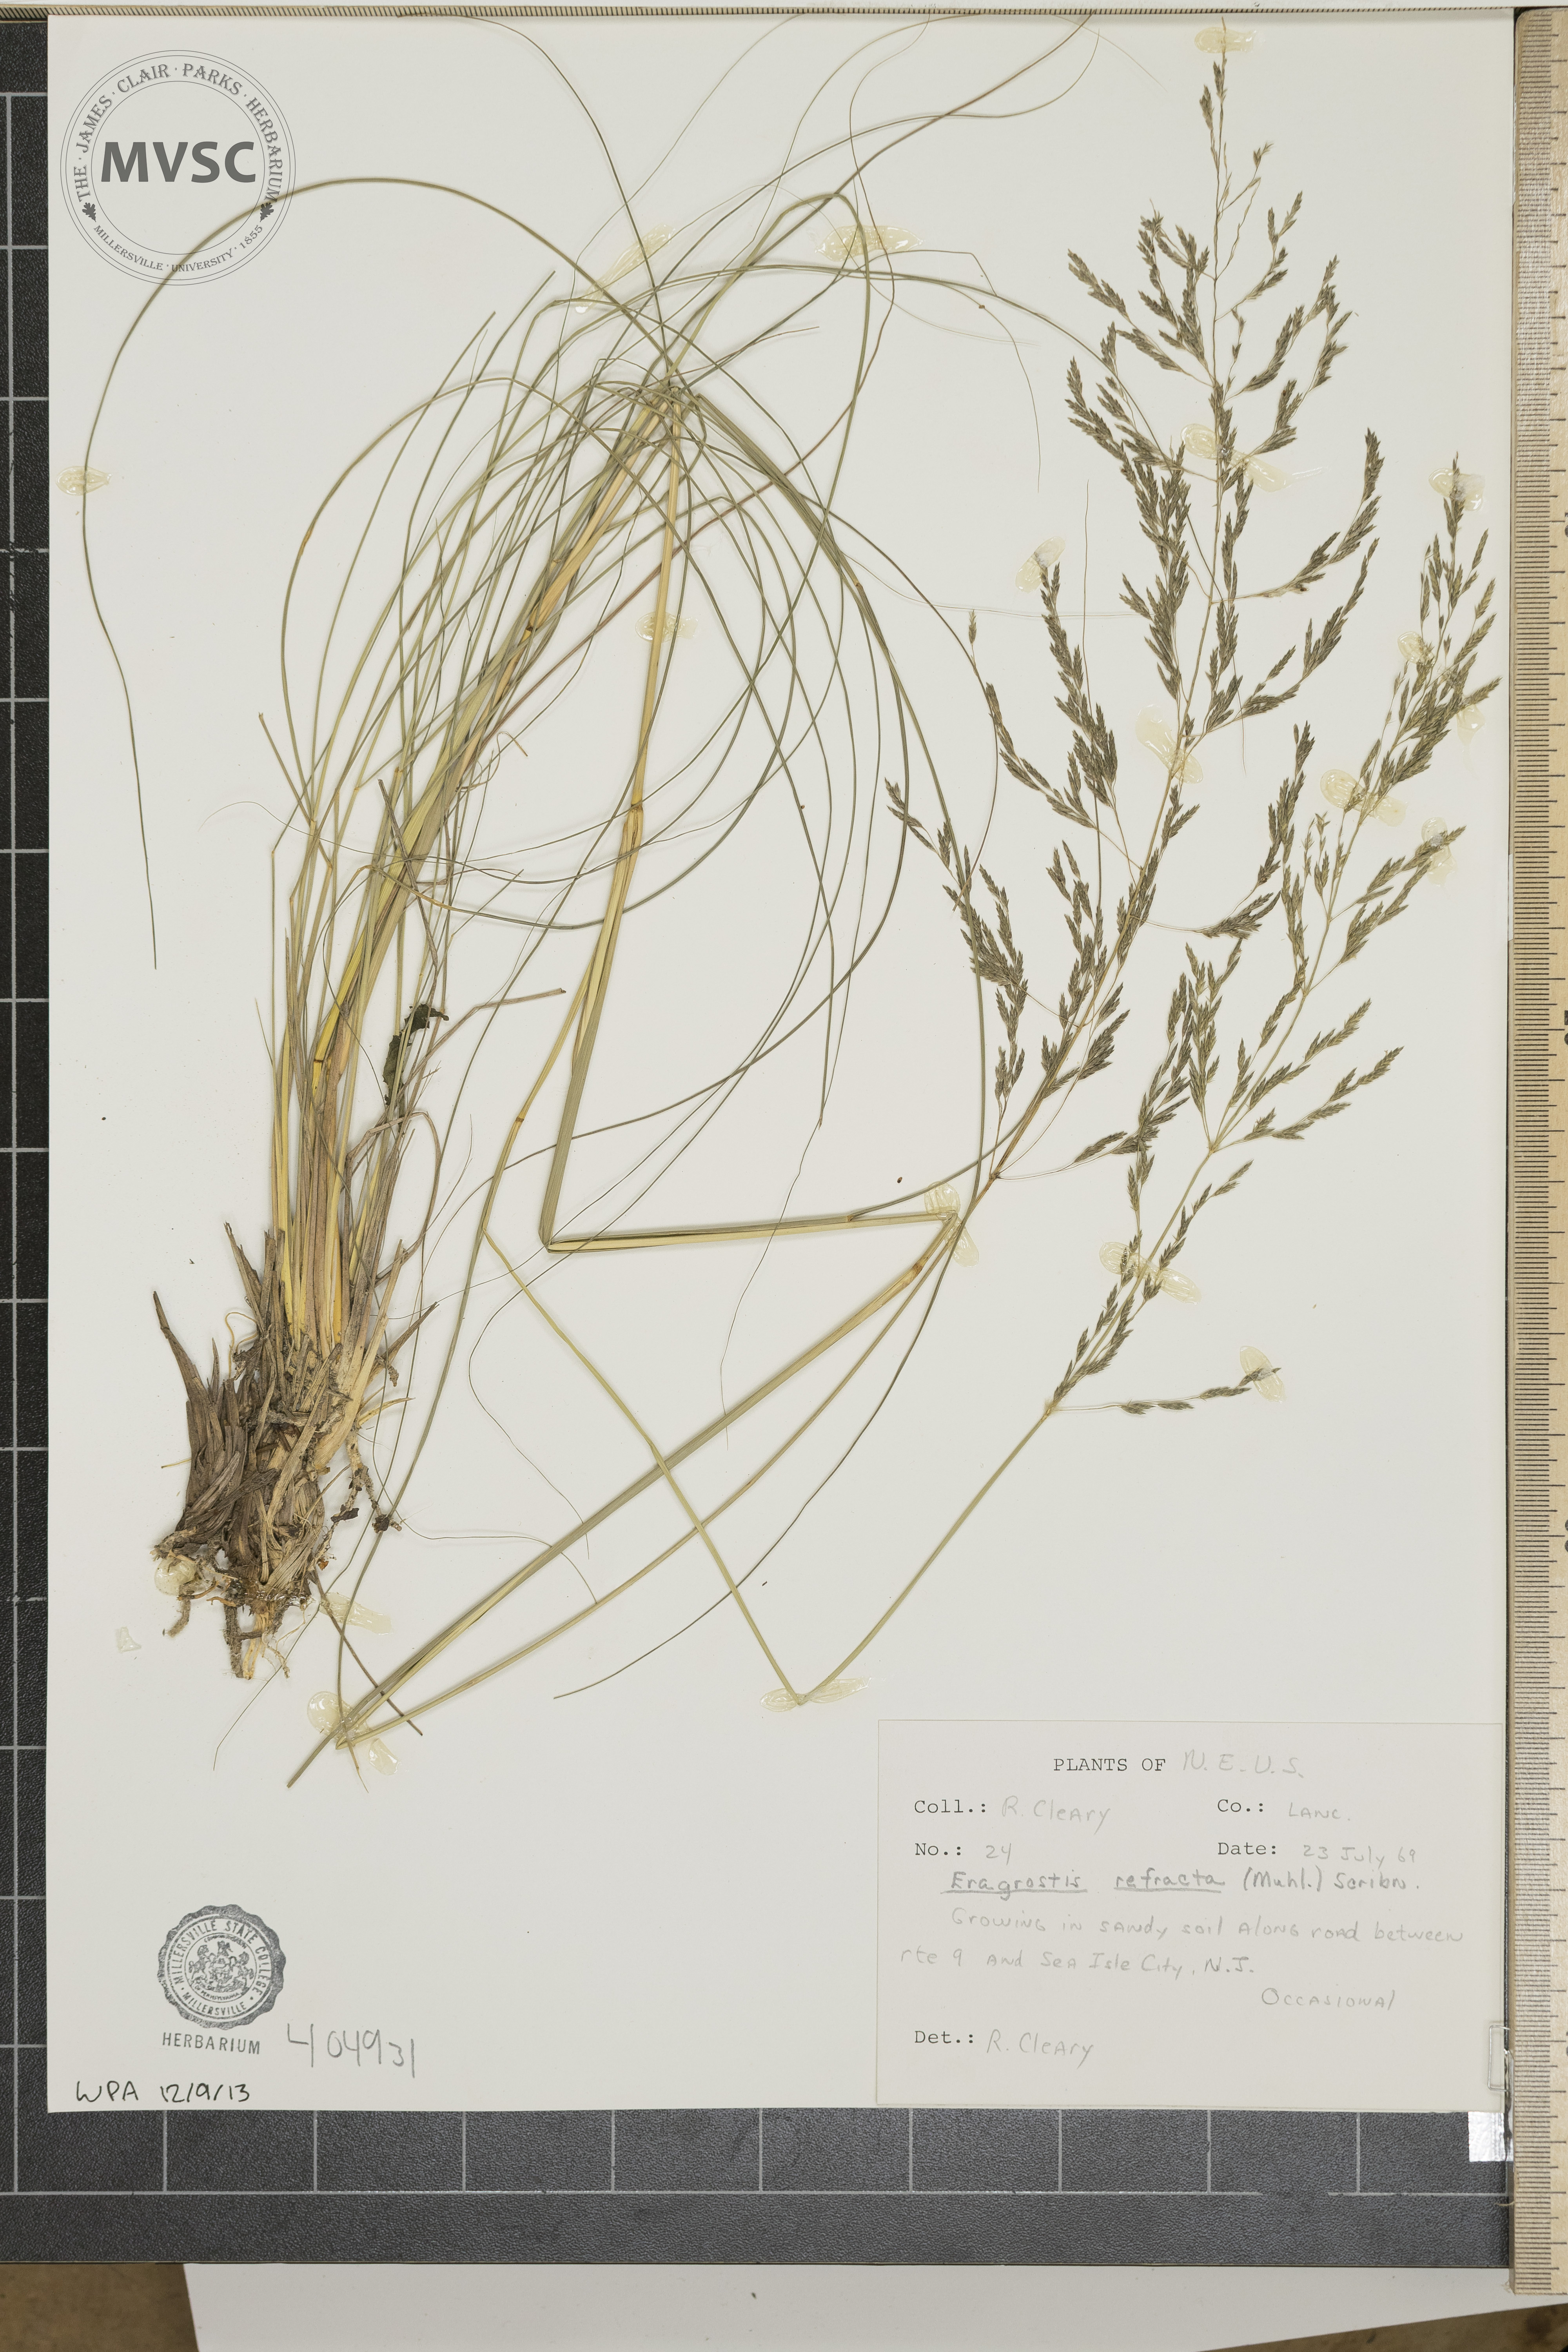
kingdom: Plantae
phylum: Tracheophyta
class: Liliopsida
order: Poales
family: Poaceae
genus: Eragrostis
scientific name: Eragrostis refracta
